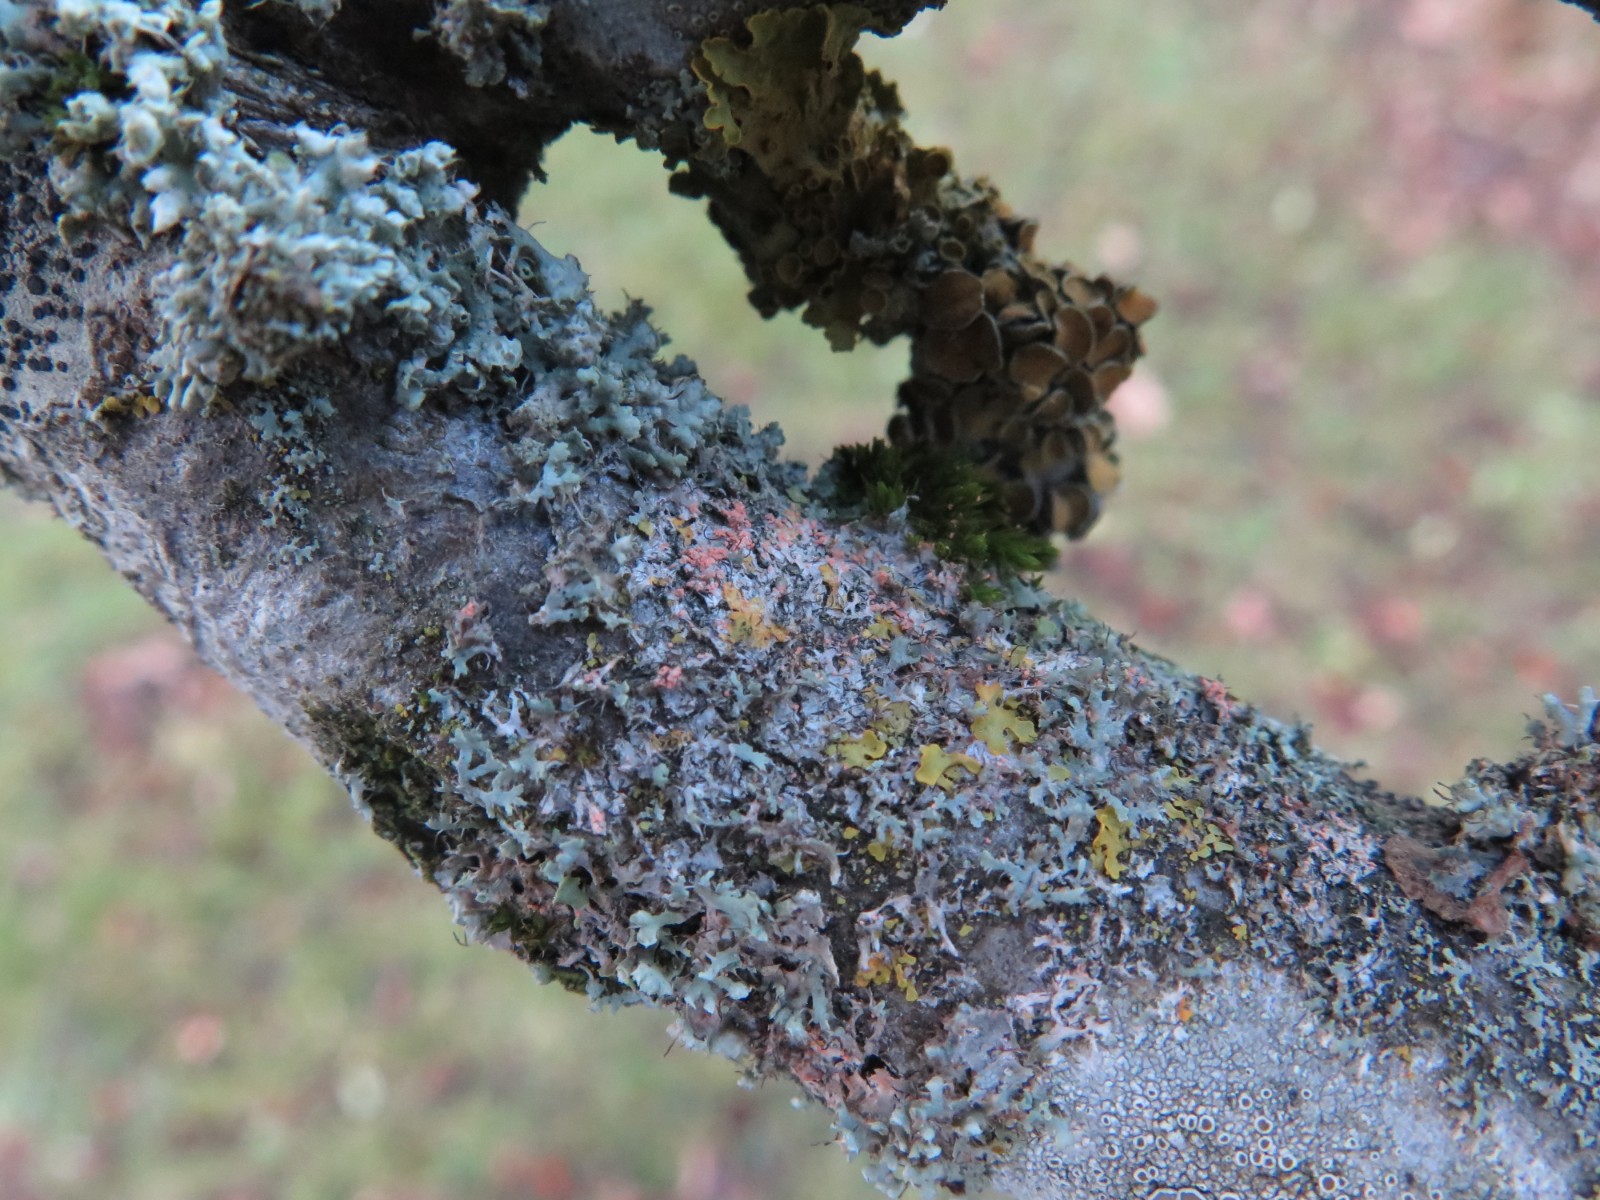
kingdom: Fungi
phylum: Basidiomycota
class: Agaricomycetes
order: Corticiales
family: Corticiaceae
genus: Erythricium
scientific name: Erythricium aurantiacum
